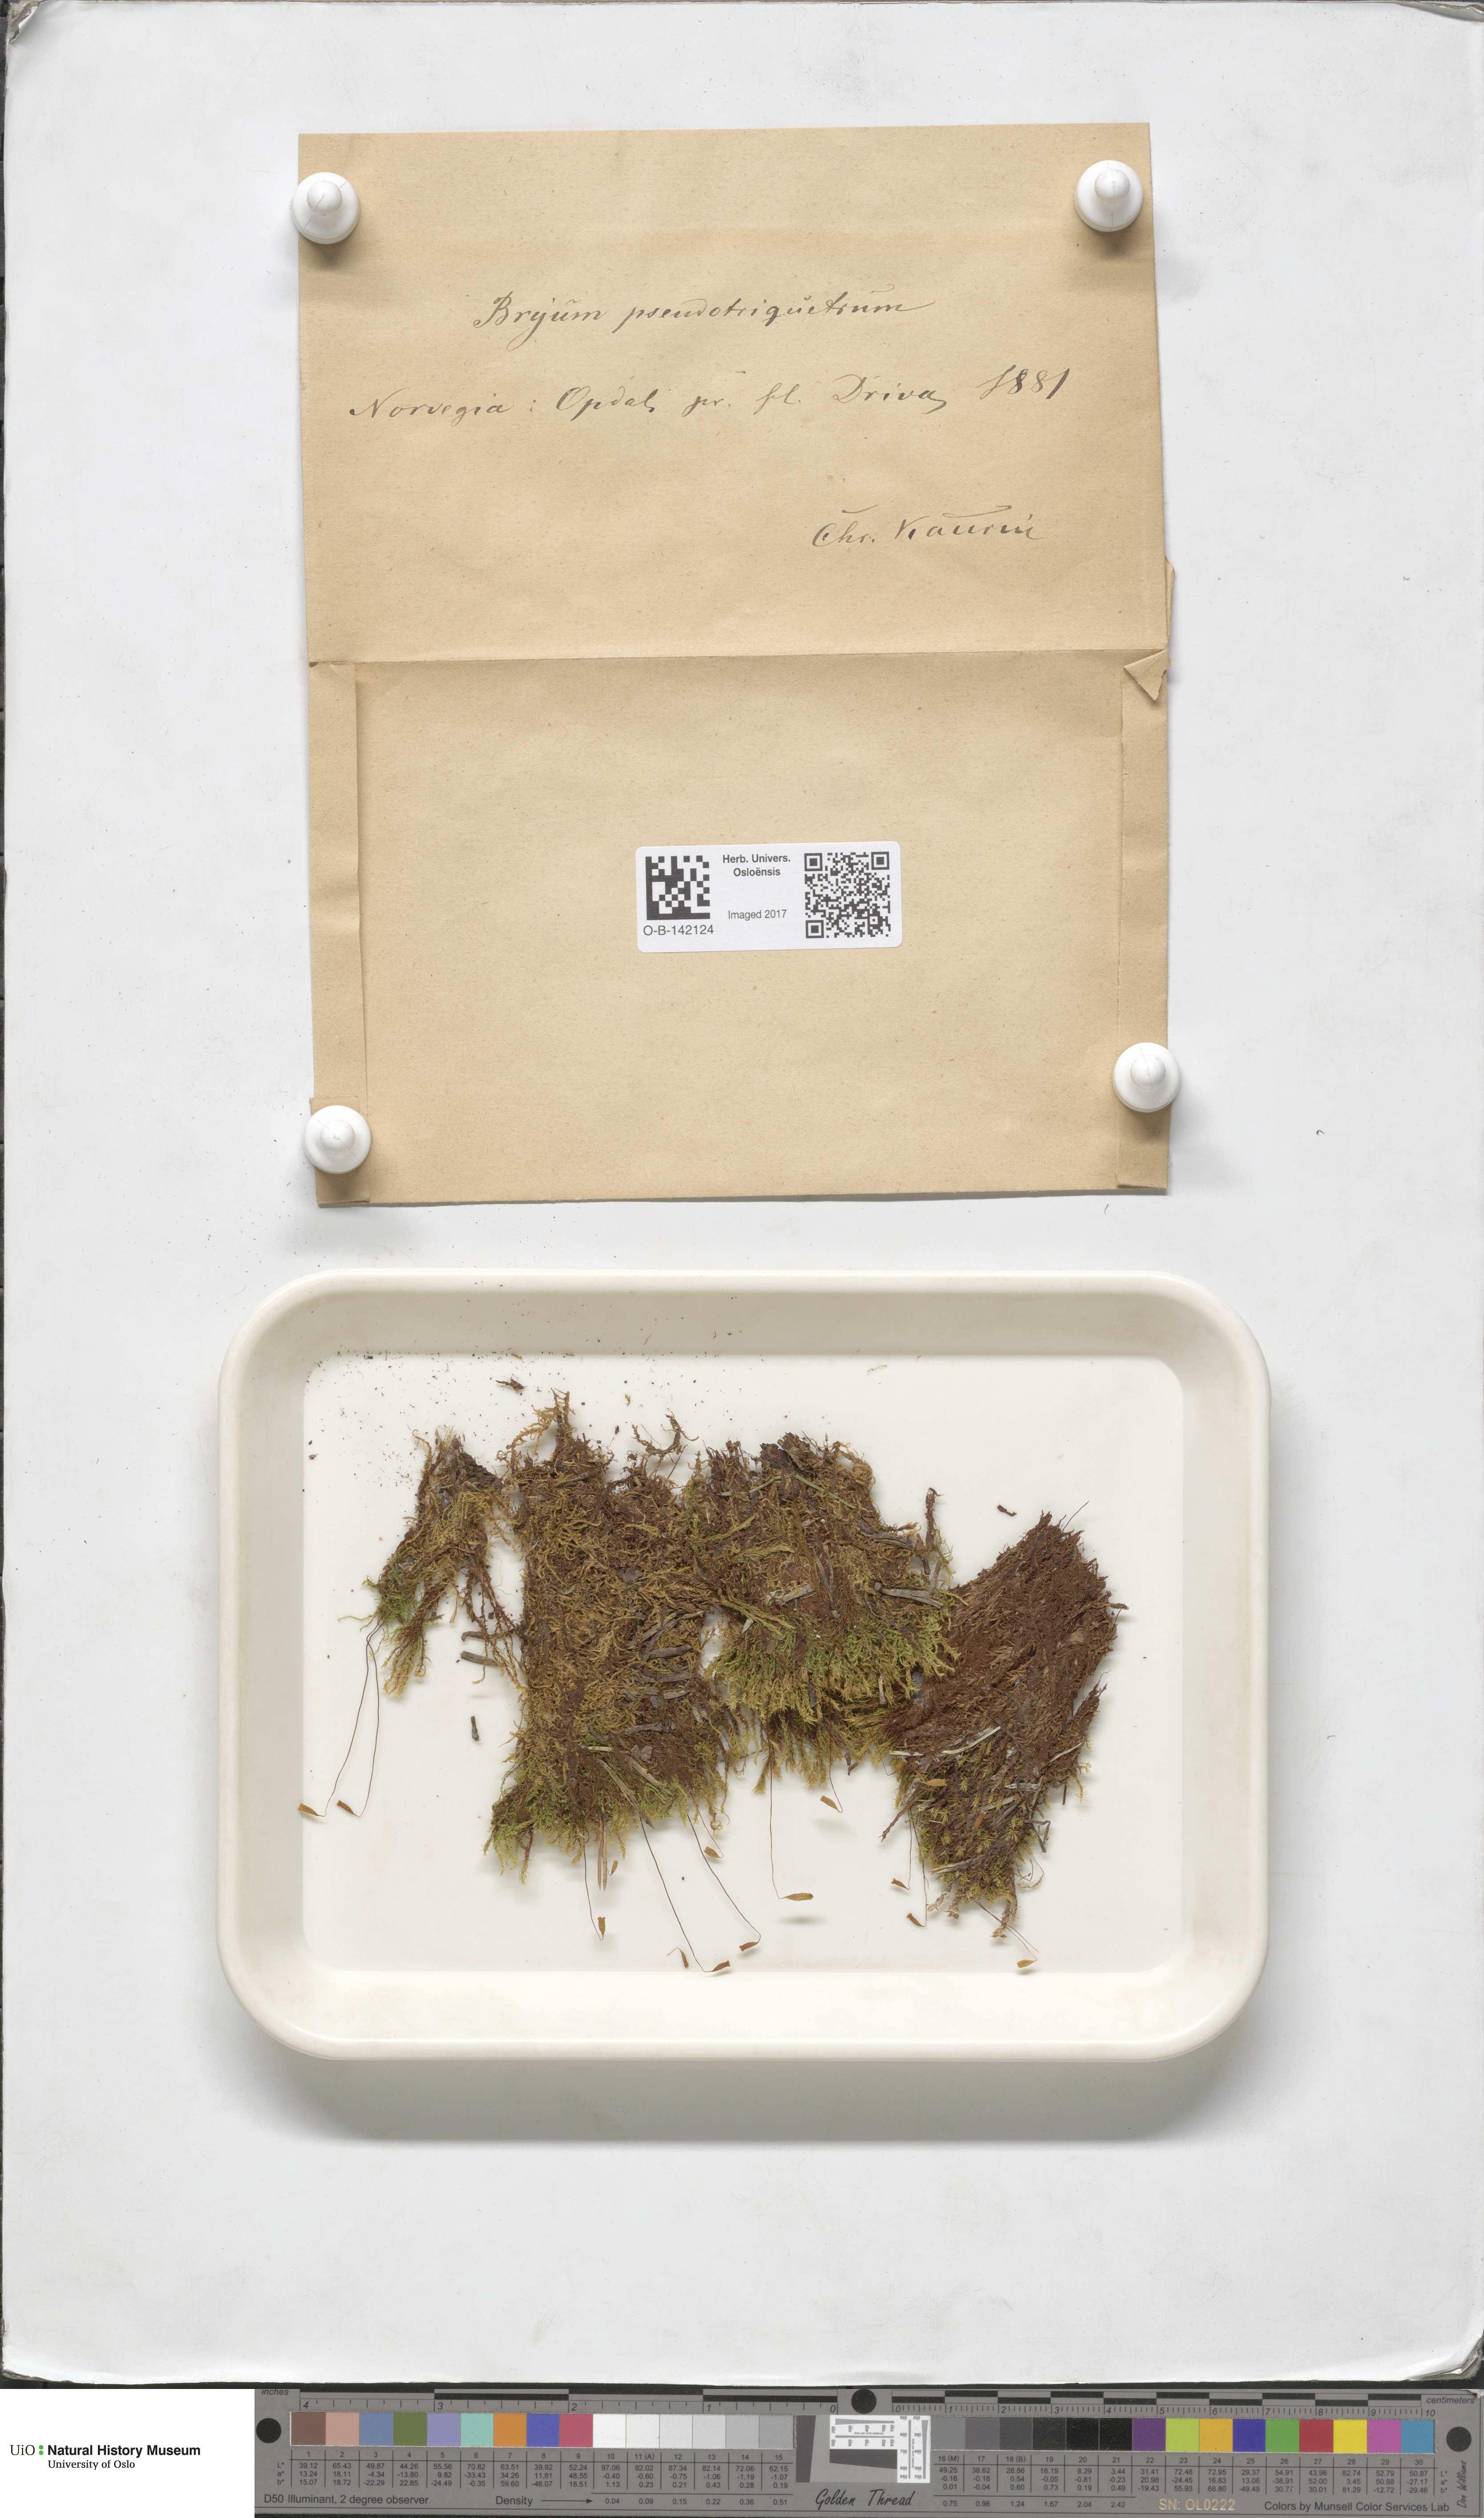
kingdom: Plantae
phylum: Bryophyta
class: Bryopsida
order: Bryales
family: Bryaceae
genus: Ptychostomum
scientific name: Ptychostomum pseudotriquetrum
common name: Long-leaved thread moss
